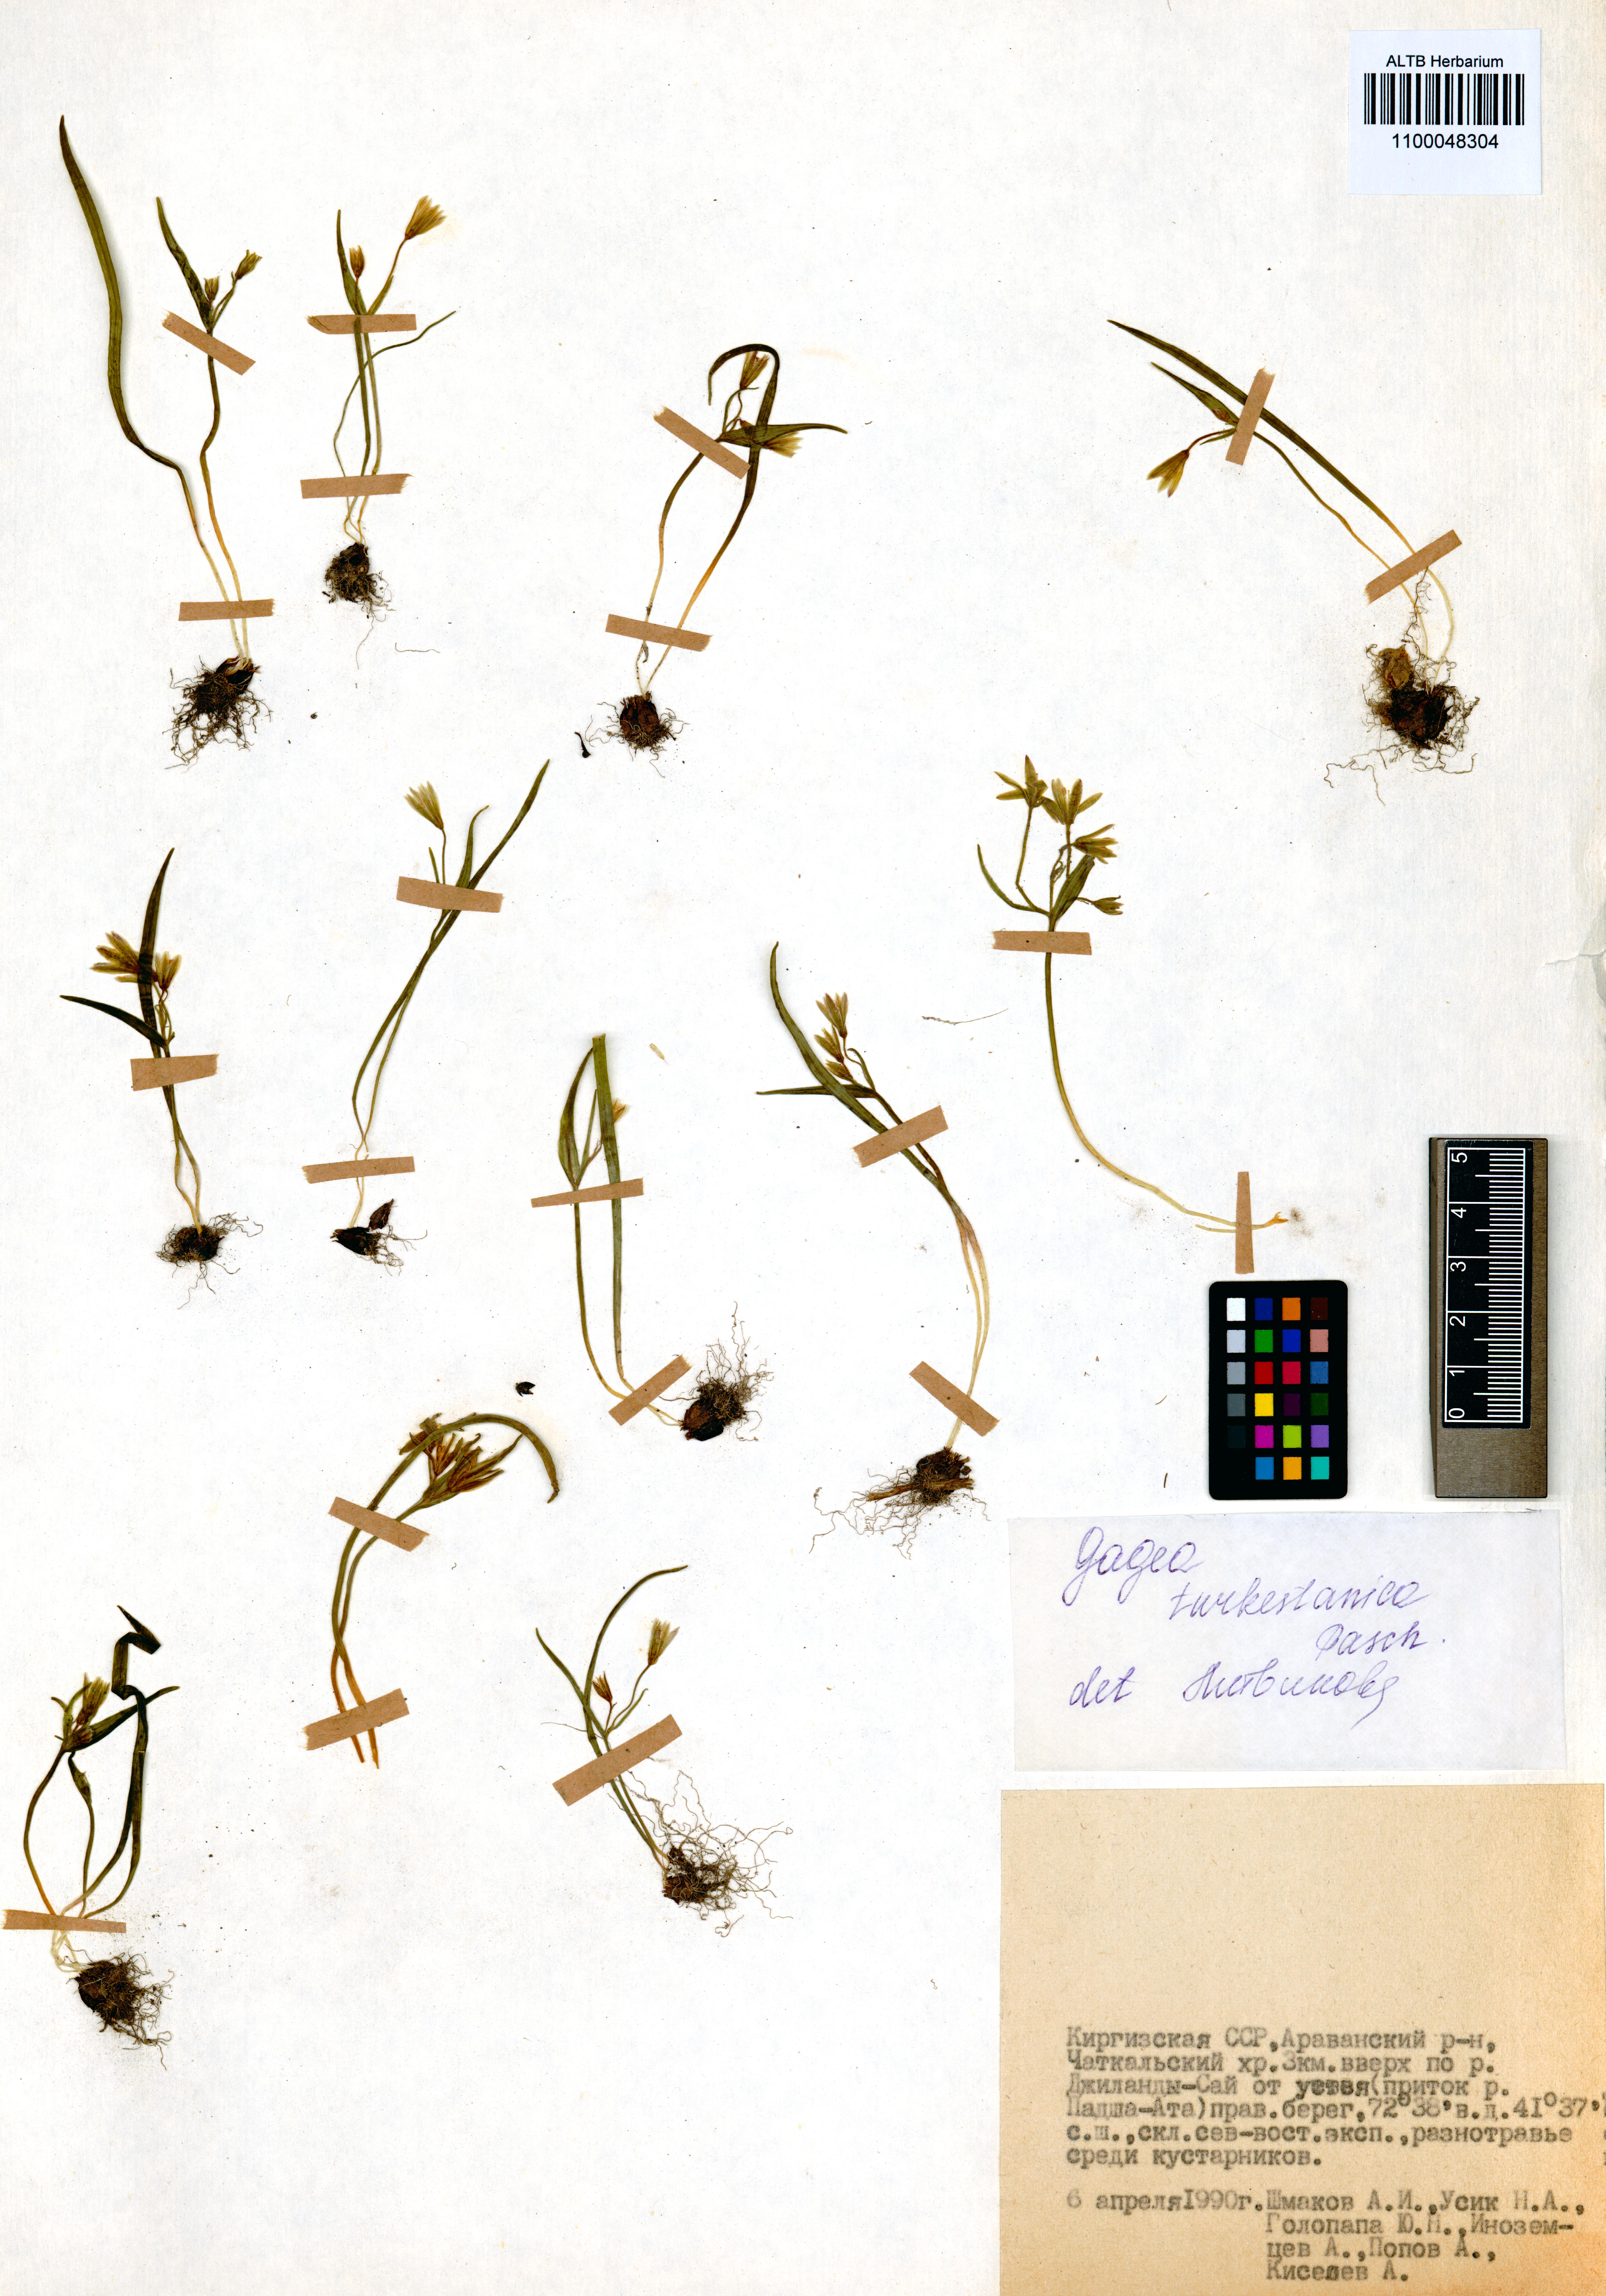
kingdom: Plantae
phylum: Tracheophyta
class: Liliopsida
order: Liliales
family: Liliaceae
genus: Gagea
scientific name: Gagea capusii
